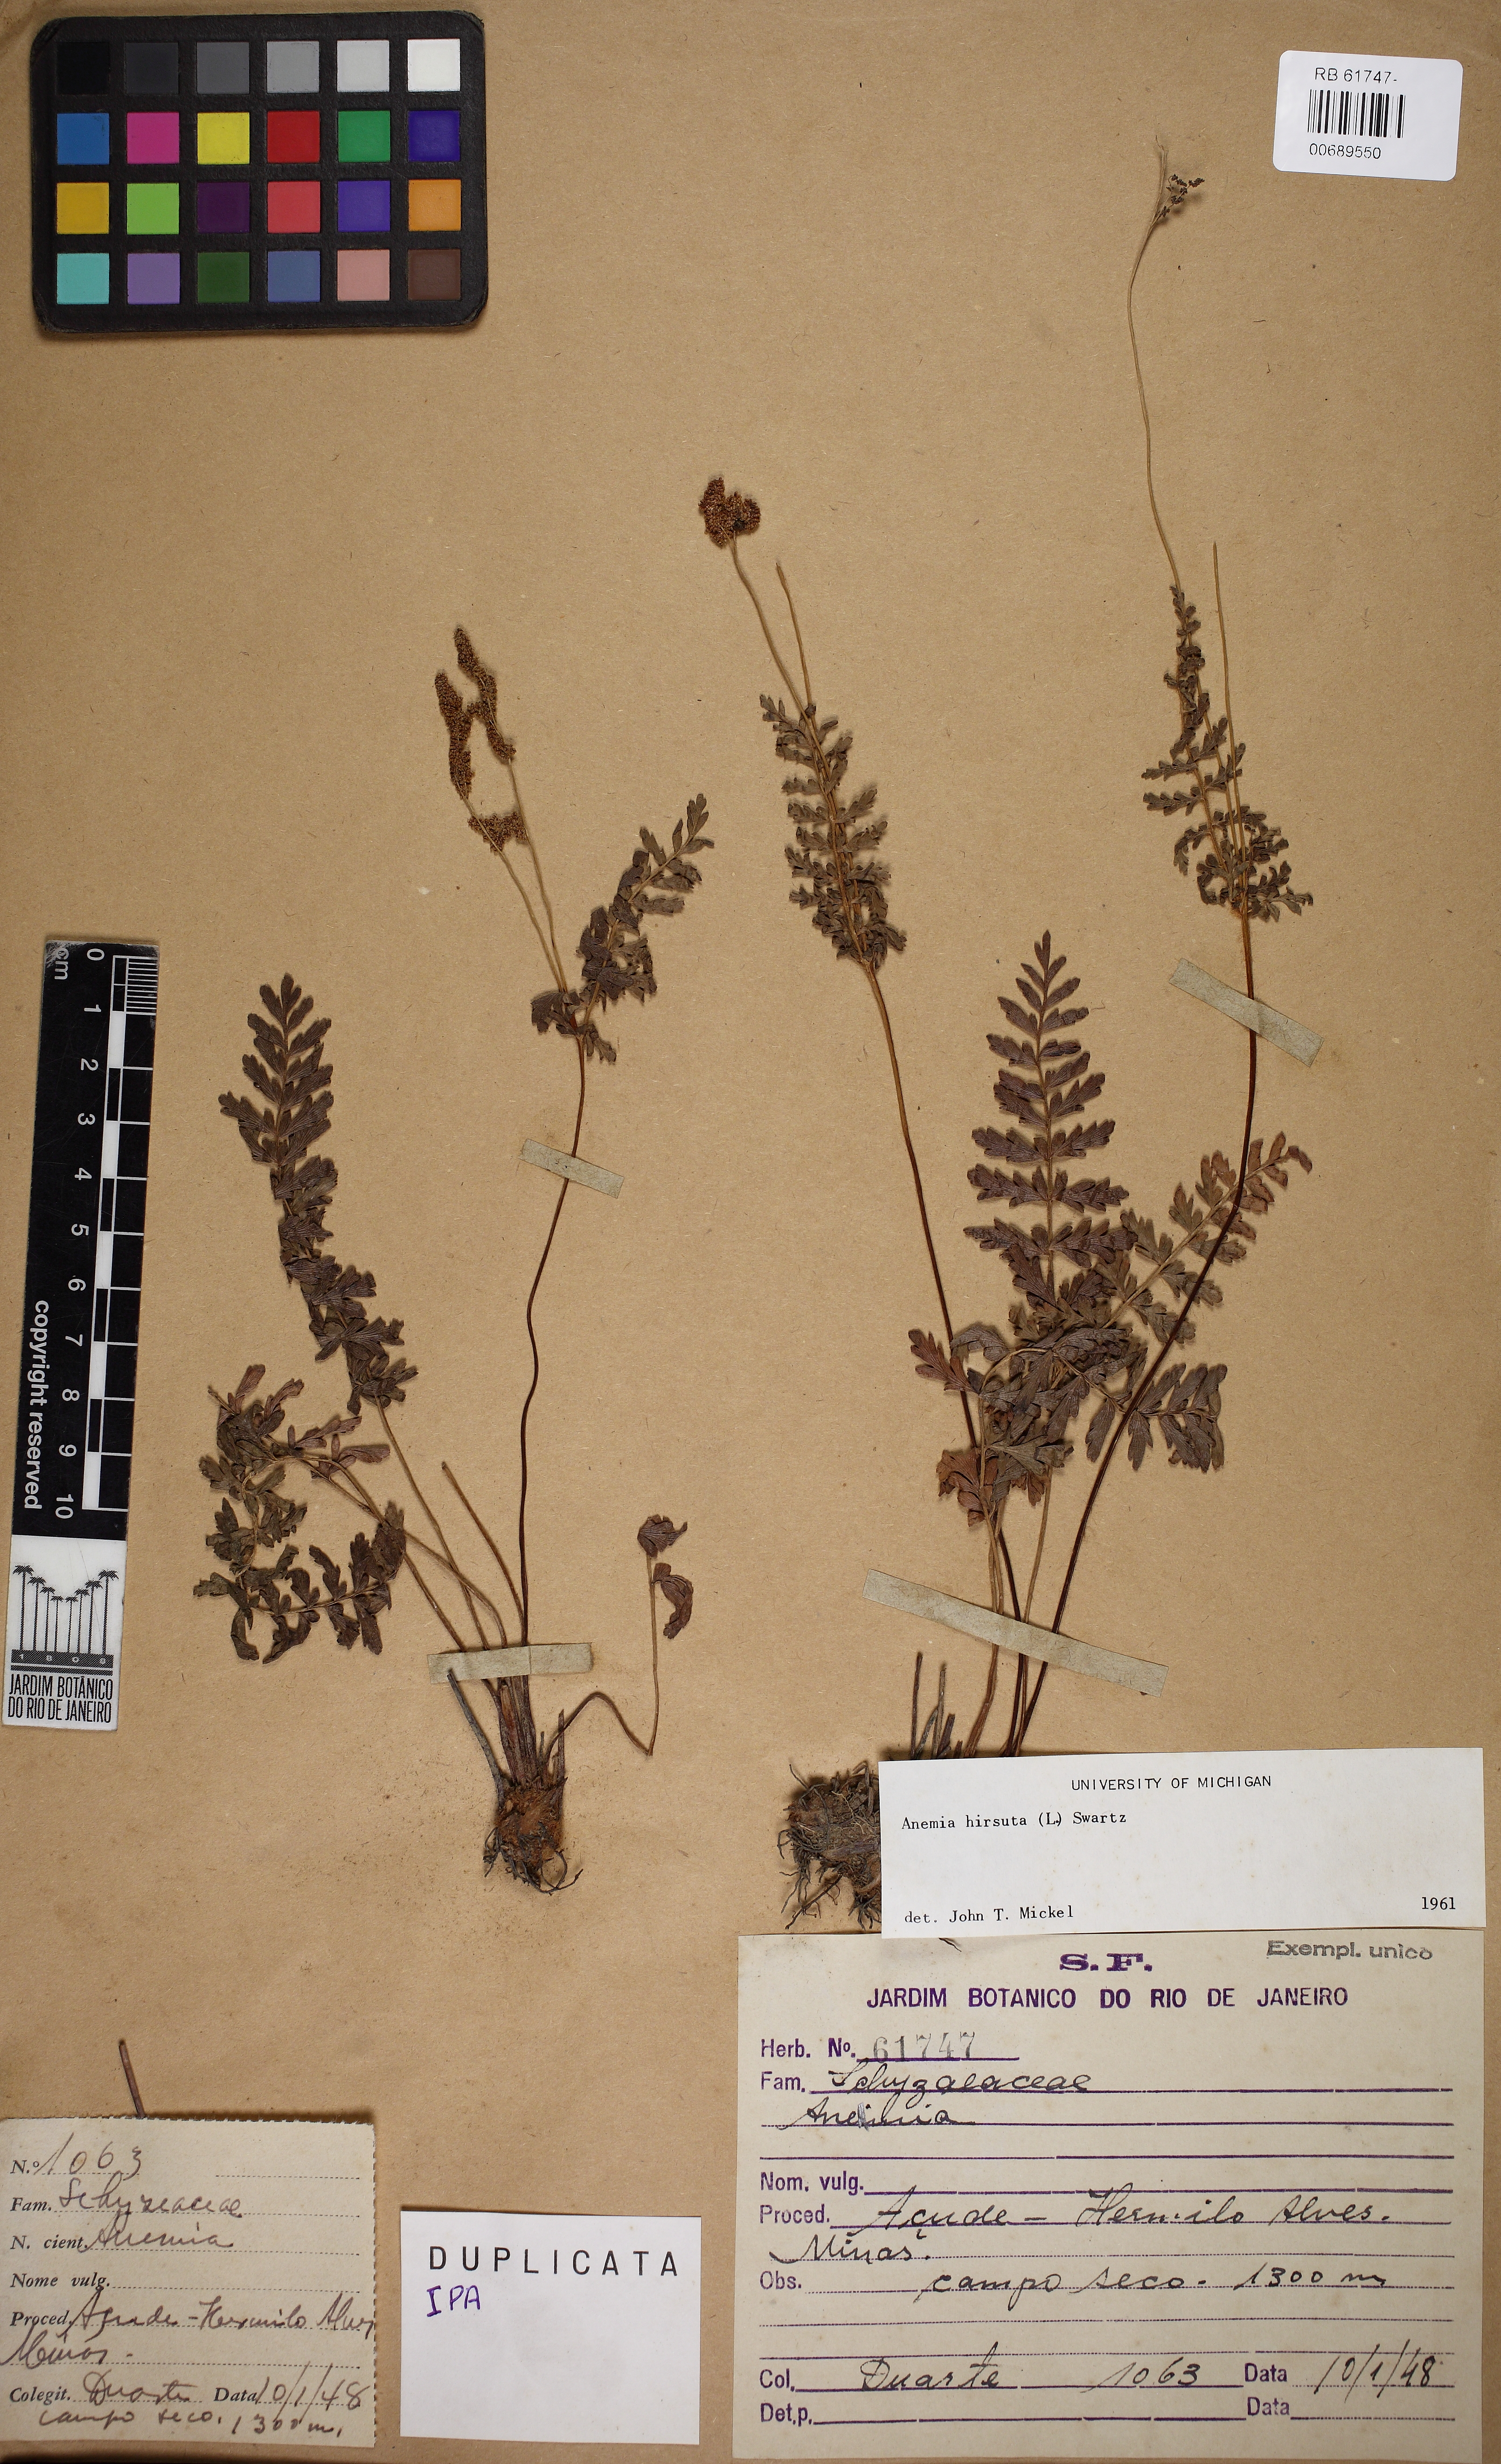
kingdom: Plantae
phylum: Tracheophyta
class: Polypodiopsida
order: Schizaeales
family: Anemiaceae
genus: Anemia
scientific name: Anemia hirsuta
